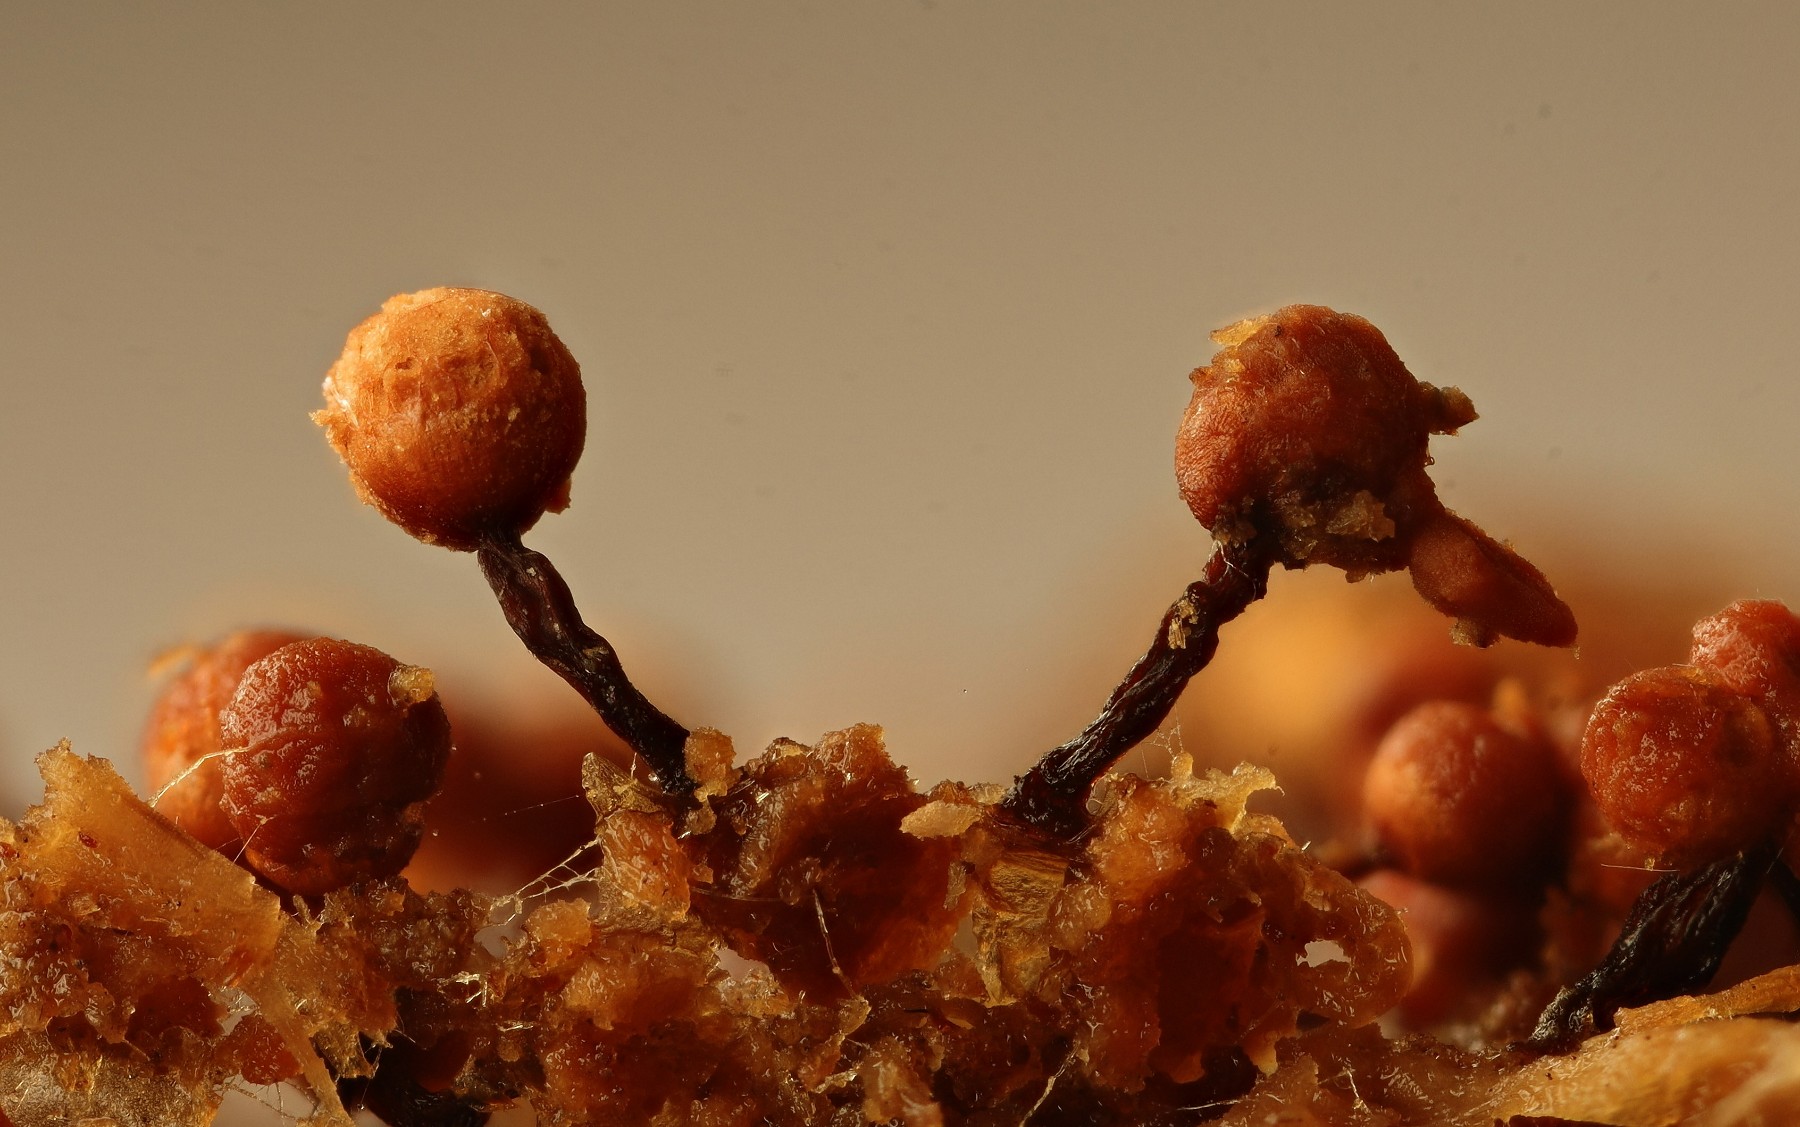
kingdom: Protozoa
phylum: Mycetozoa
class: Myxomycetes
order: Cribrariales
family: Cribrariaceae
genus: Cribraria
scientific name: Cribraria rufa
